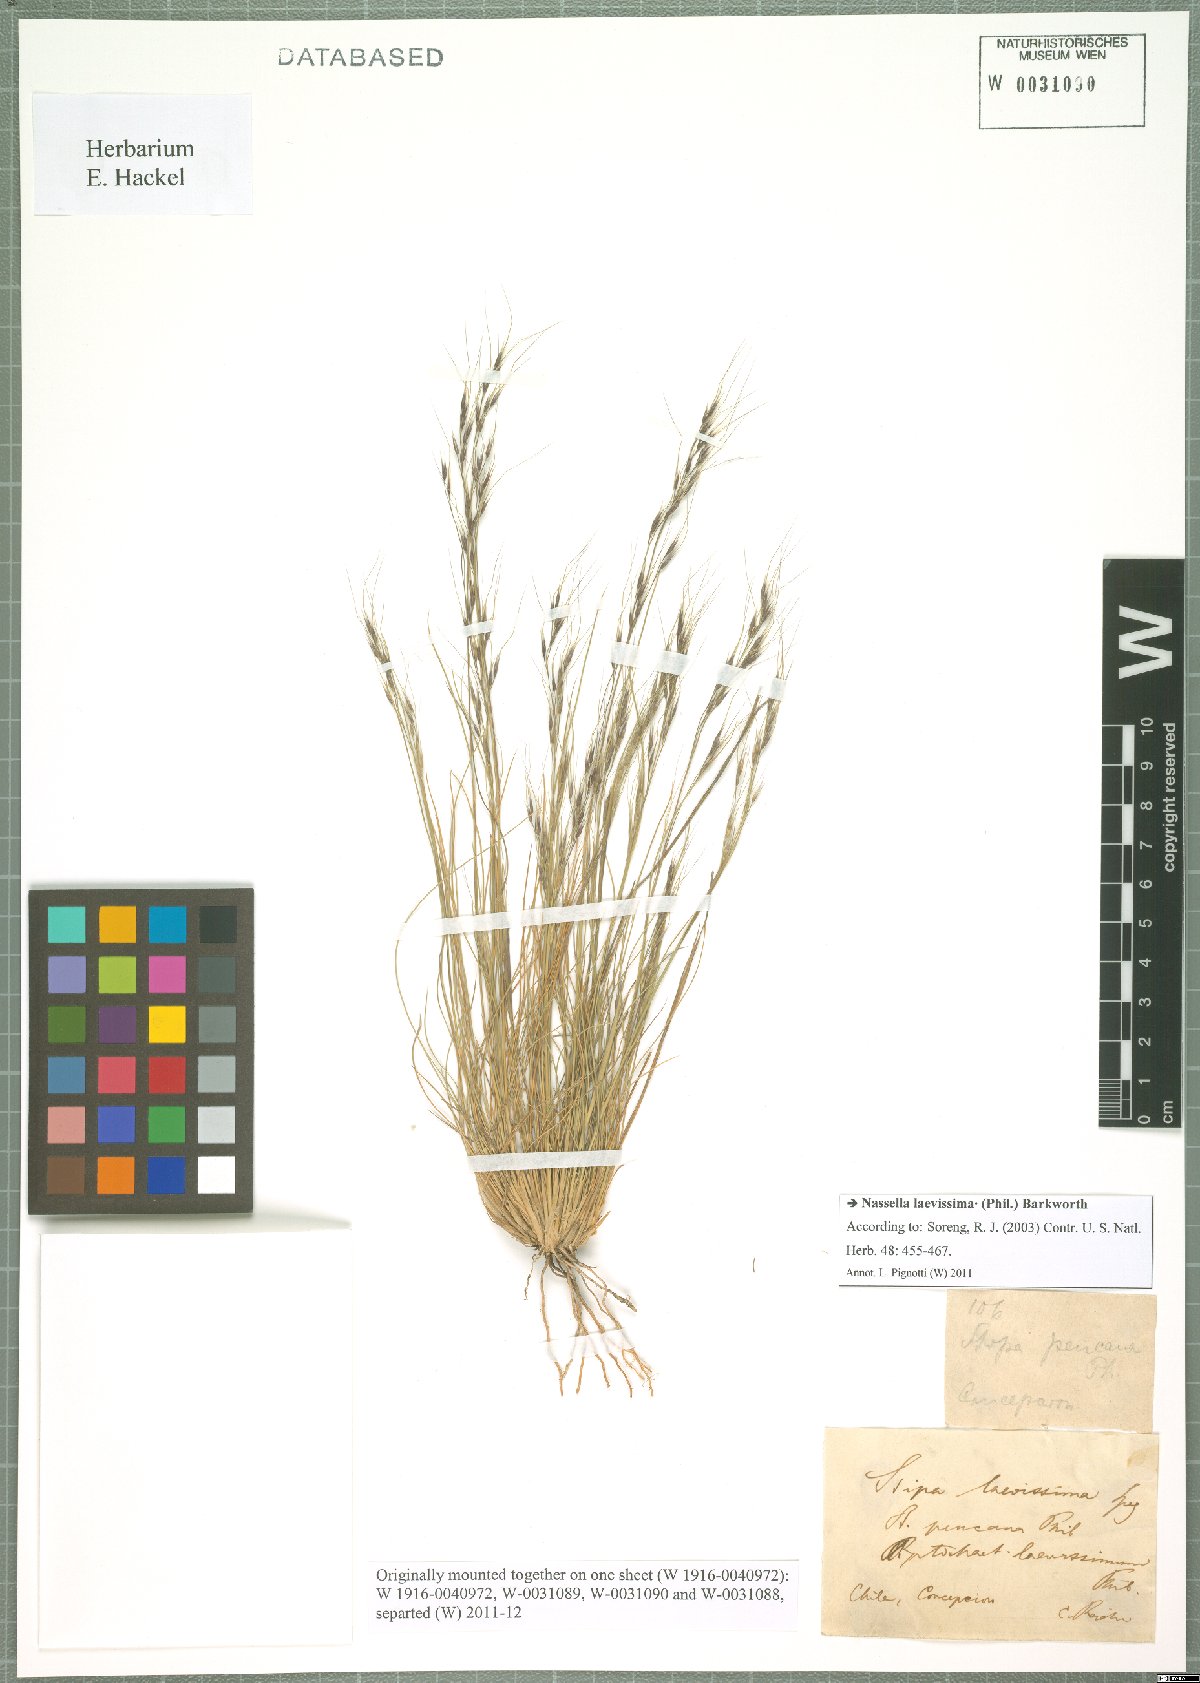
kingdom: Plantae
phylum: Tracheophyta
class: Liliopsida
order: Poales
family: Poaceae
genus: Nassella
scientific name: Nassella laevissima
